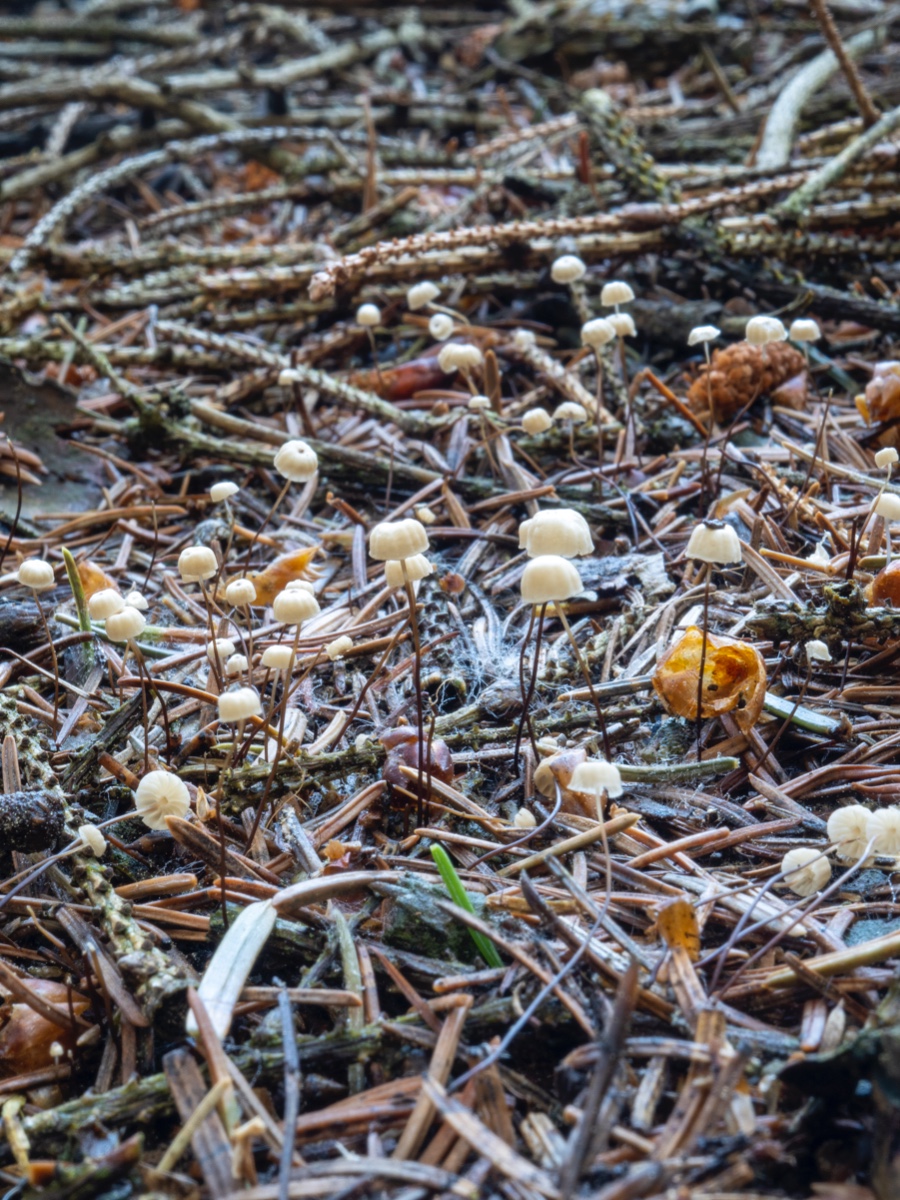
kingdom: Fungi
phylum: Basidiomycota
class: Agaricomycetes
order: Agaricales
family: Marasmiaceae
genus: Marasmius
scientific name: Marasmius wettsteinii
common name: Wettsteins bruskhat
